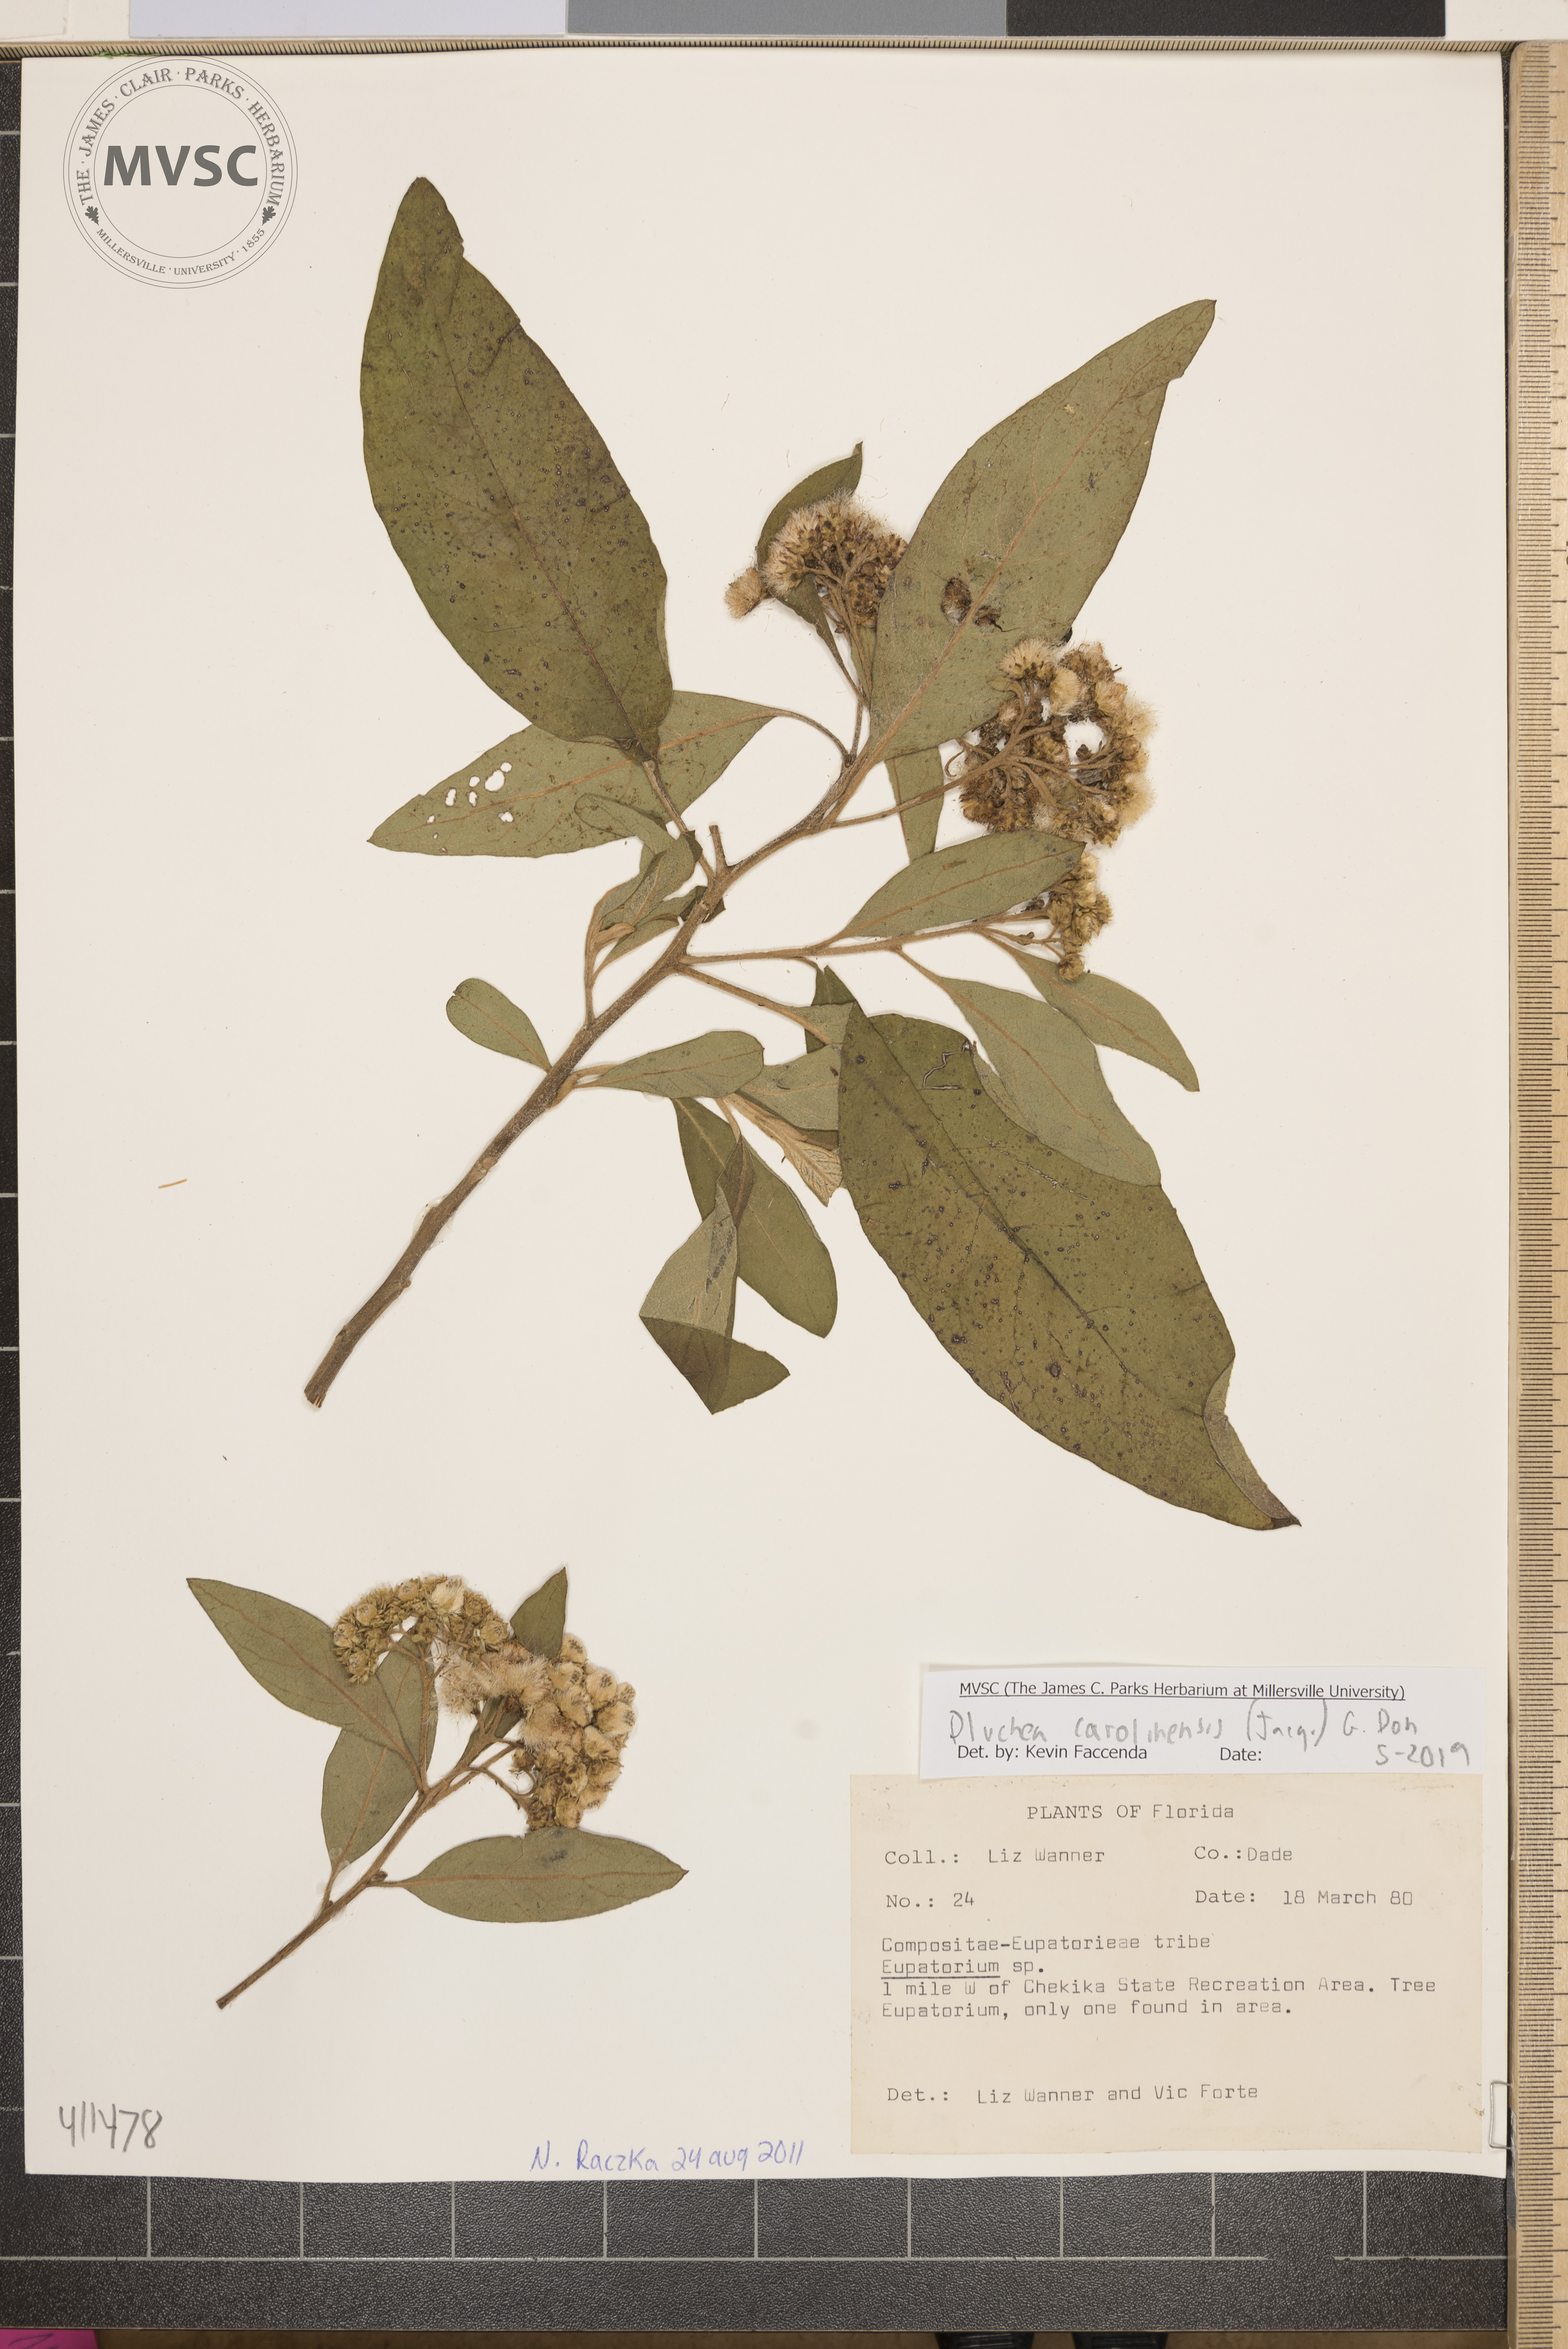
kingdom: Plantae
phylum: Tracheophyta
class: Magnoliopsida
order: Asterales
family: Asteraceae
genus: Pluchea
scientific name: Pluchea
